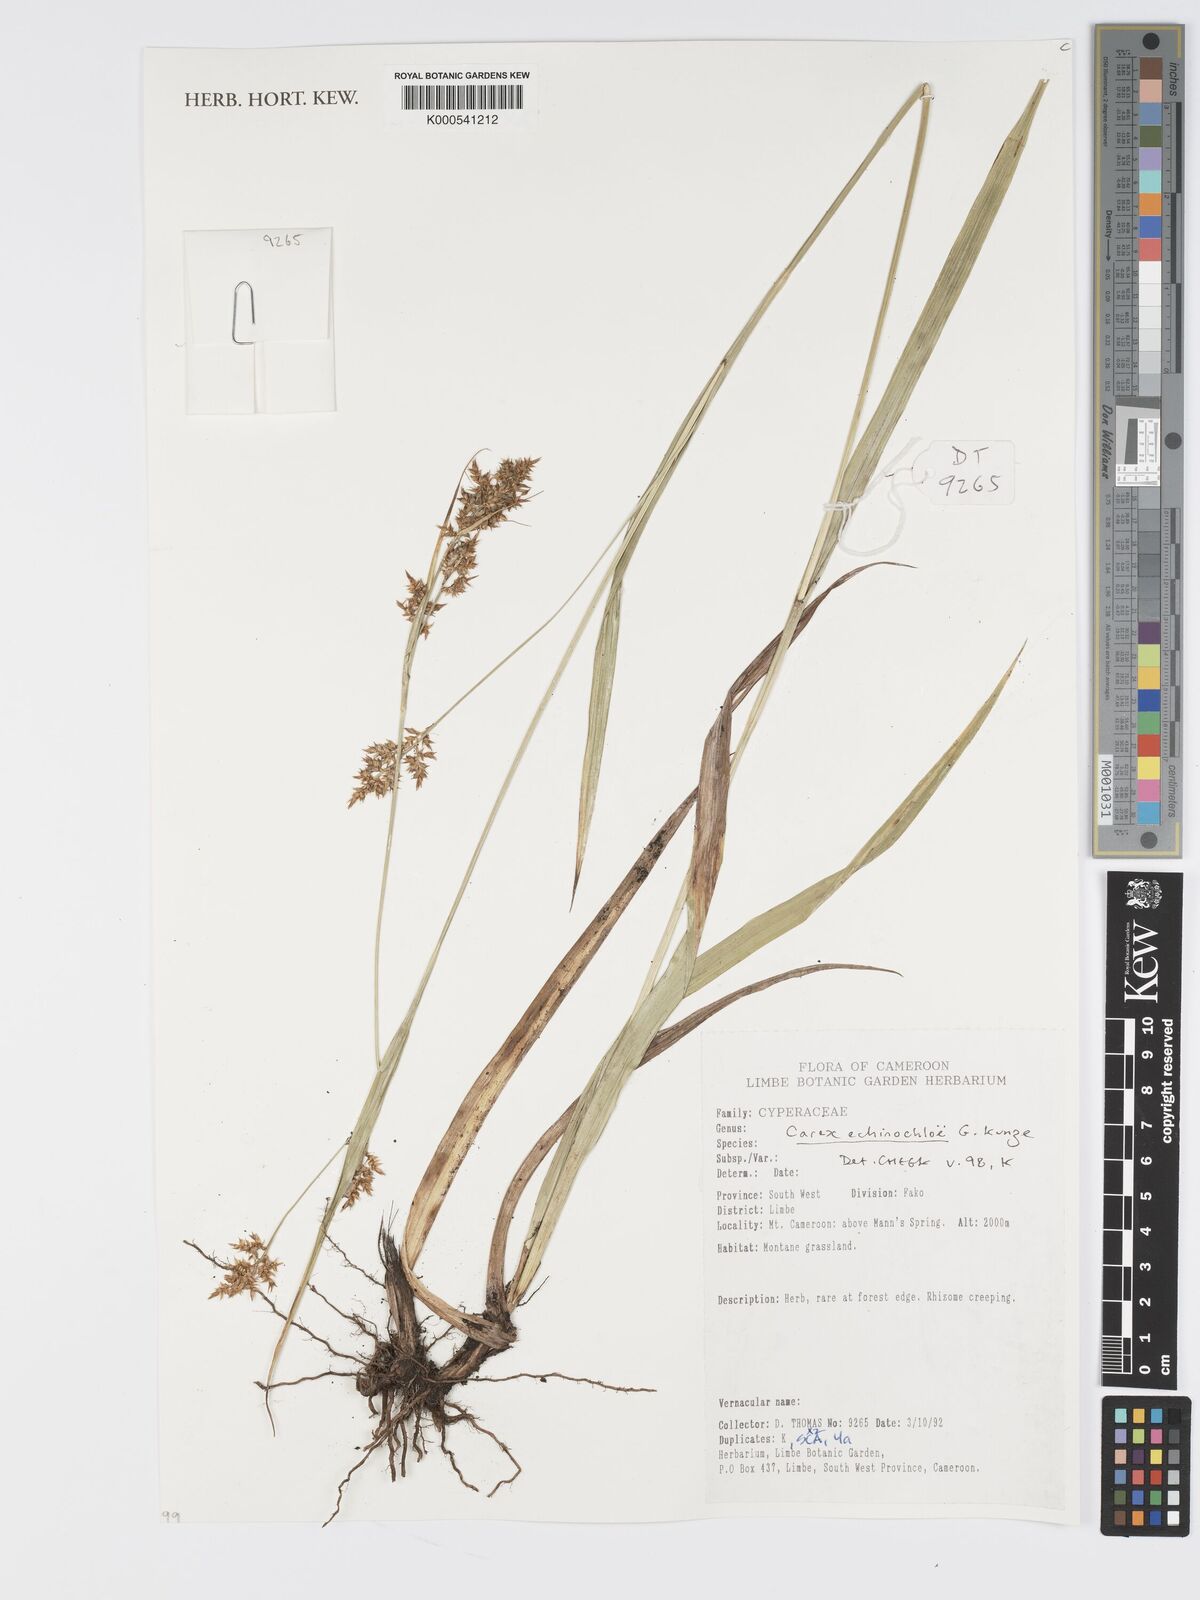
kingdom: Plantae
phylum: Tracheophyta
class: Liliopsida
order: Poales
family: Cyperaceae
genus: Carex
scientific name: Carex
